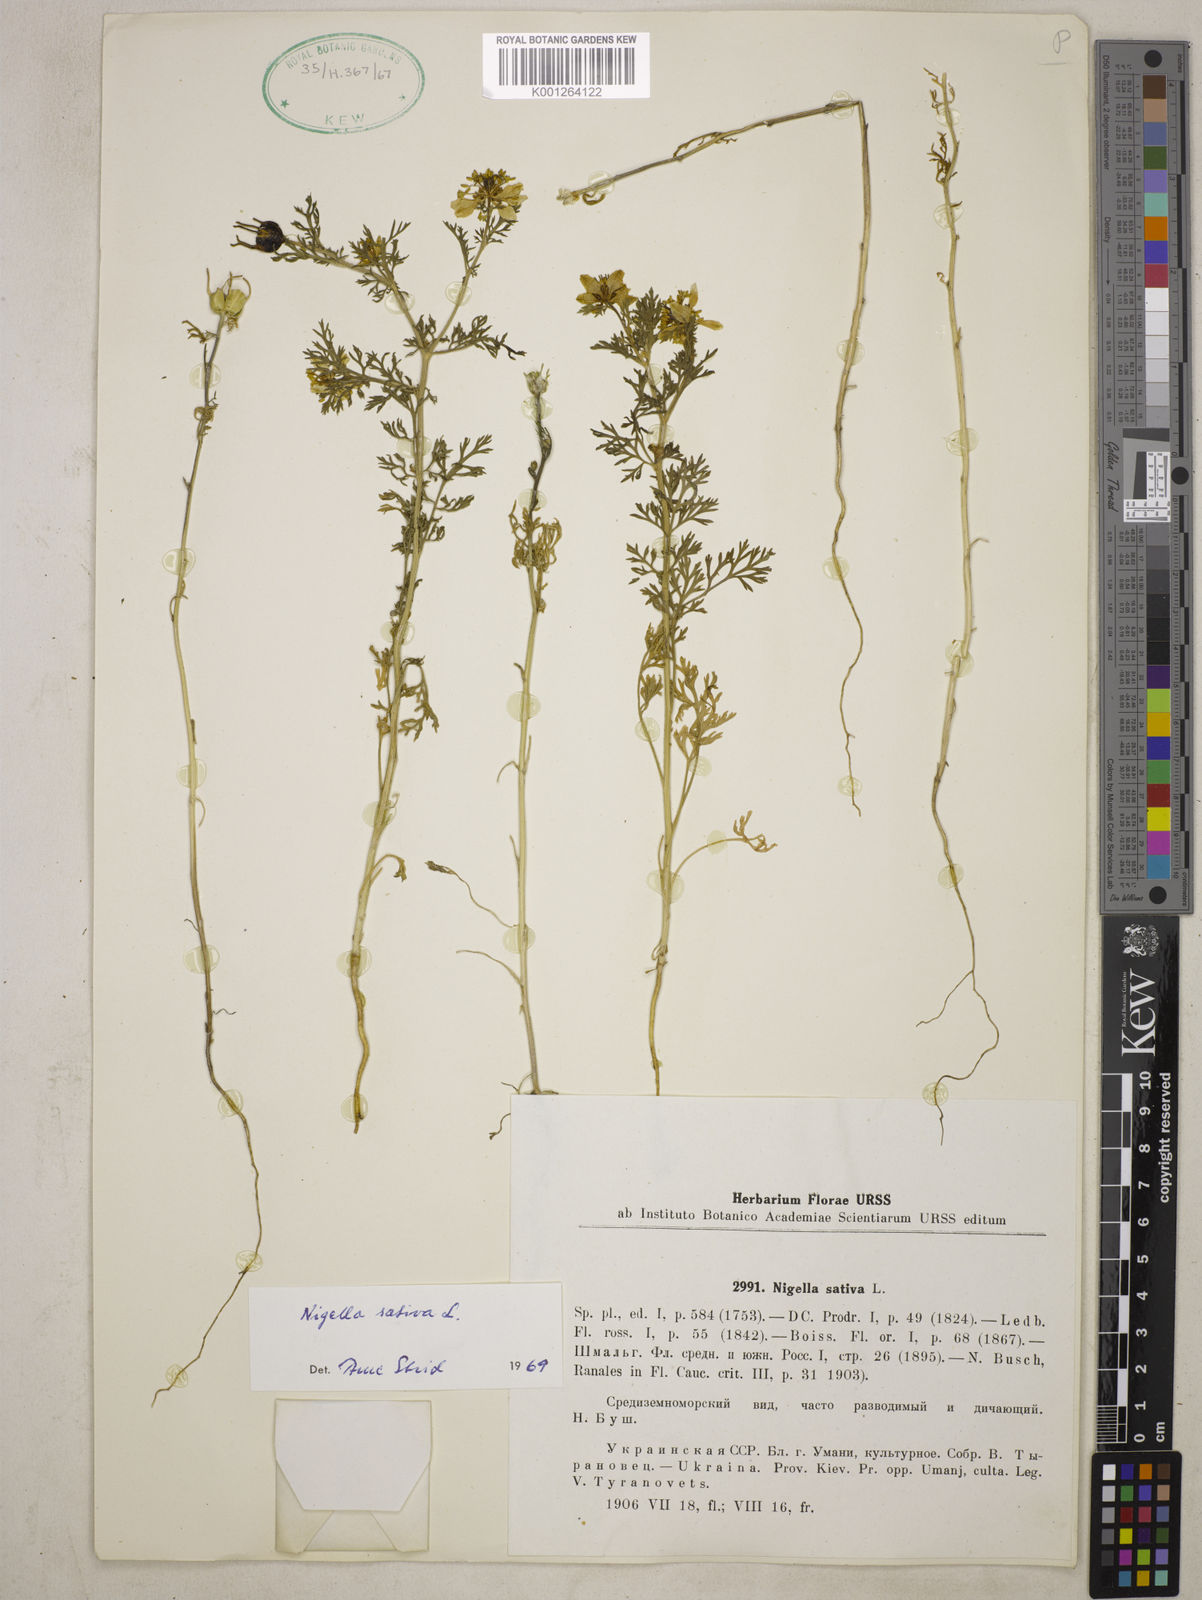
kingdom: Plantae
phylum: Tracheophyta
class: Magnoliopsida
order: Ranunculales
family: Ranunculaceae
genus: Nigella
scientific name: Nigella sativa
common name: Black-cumin
